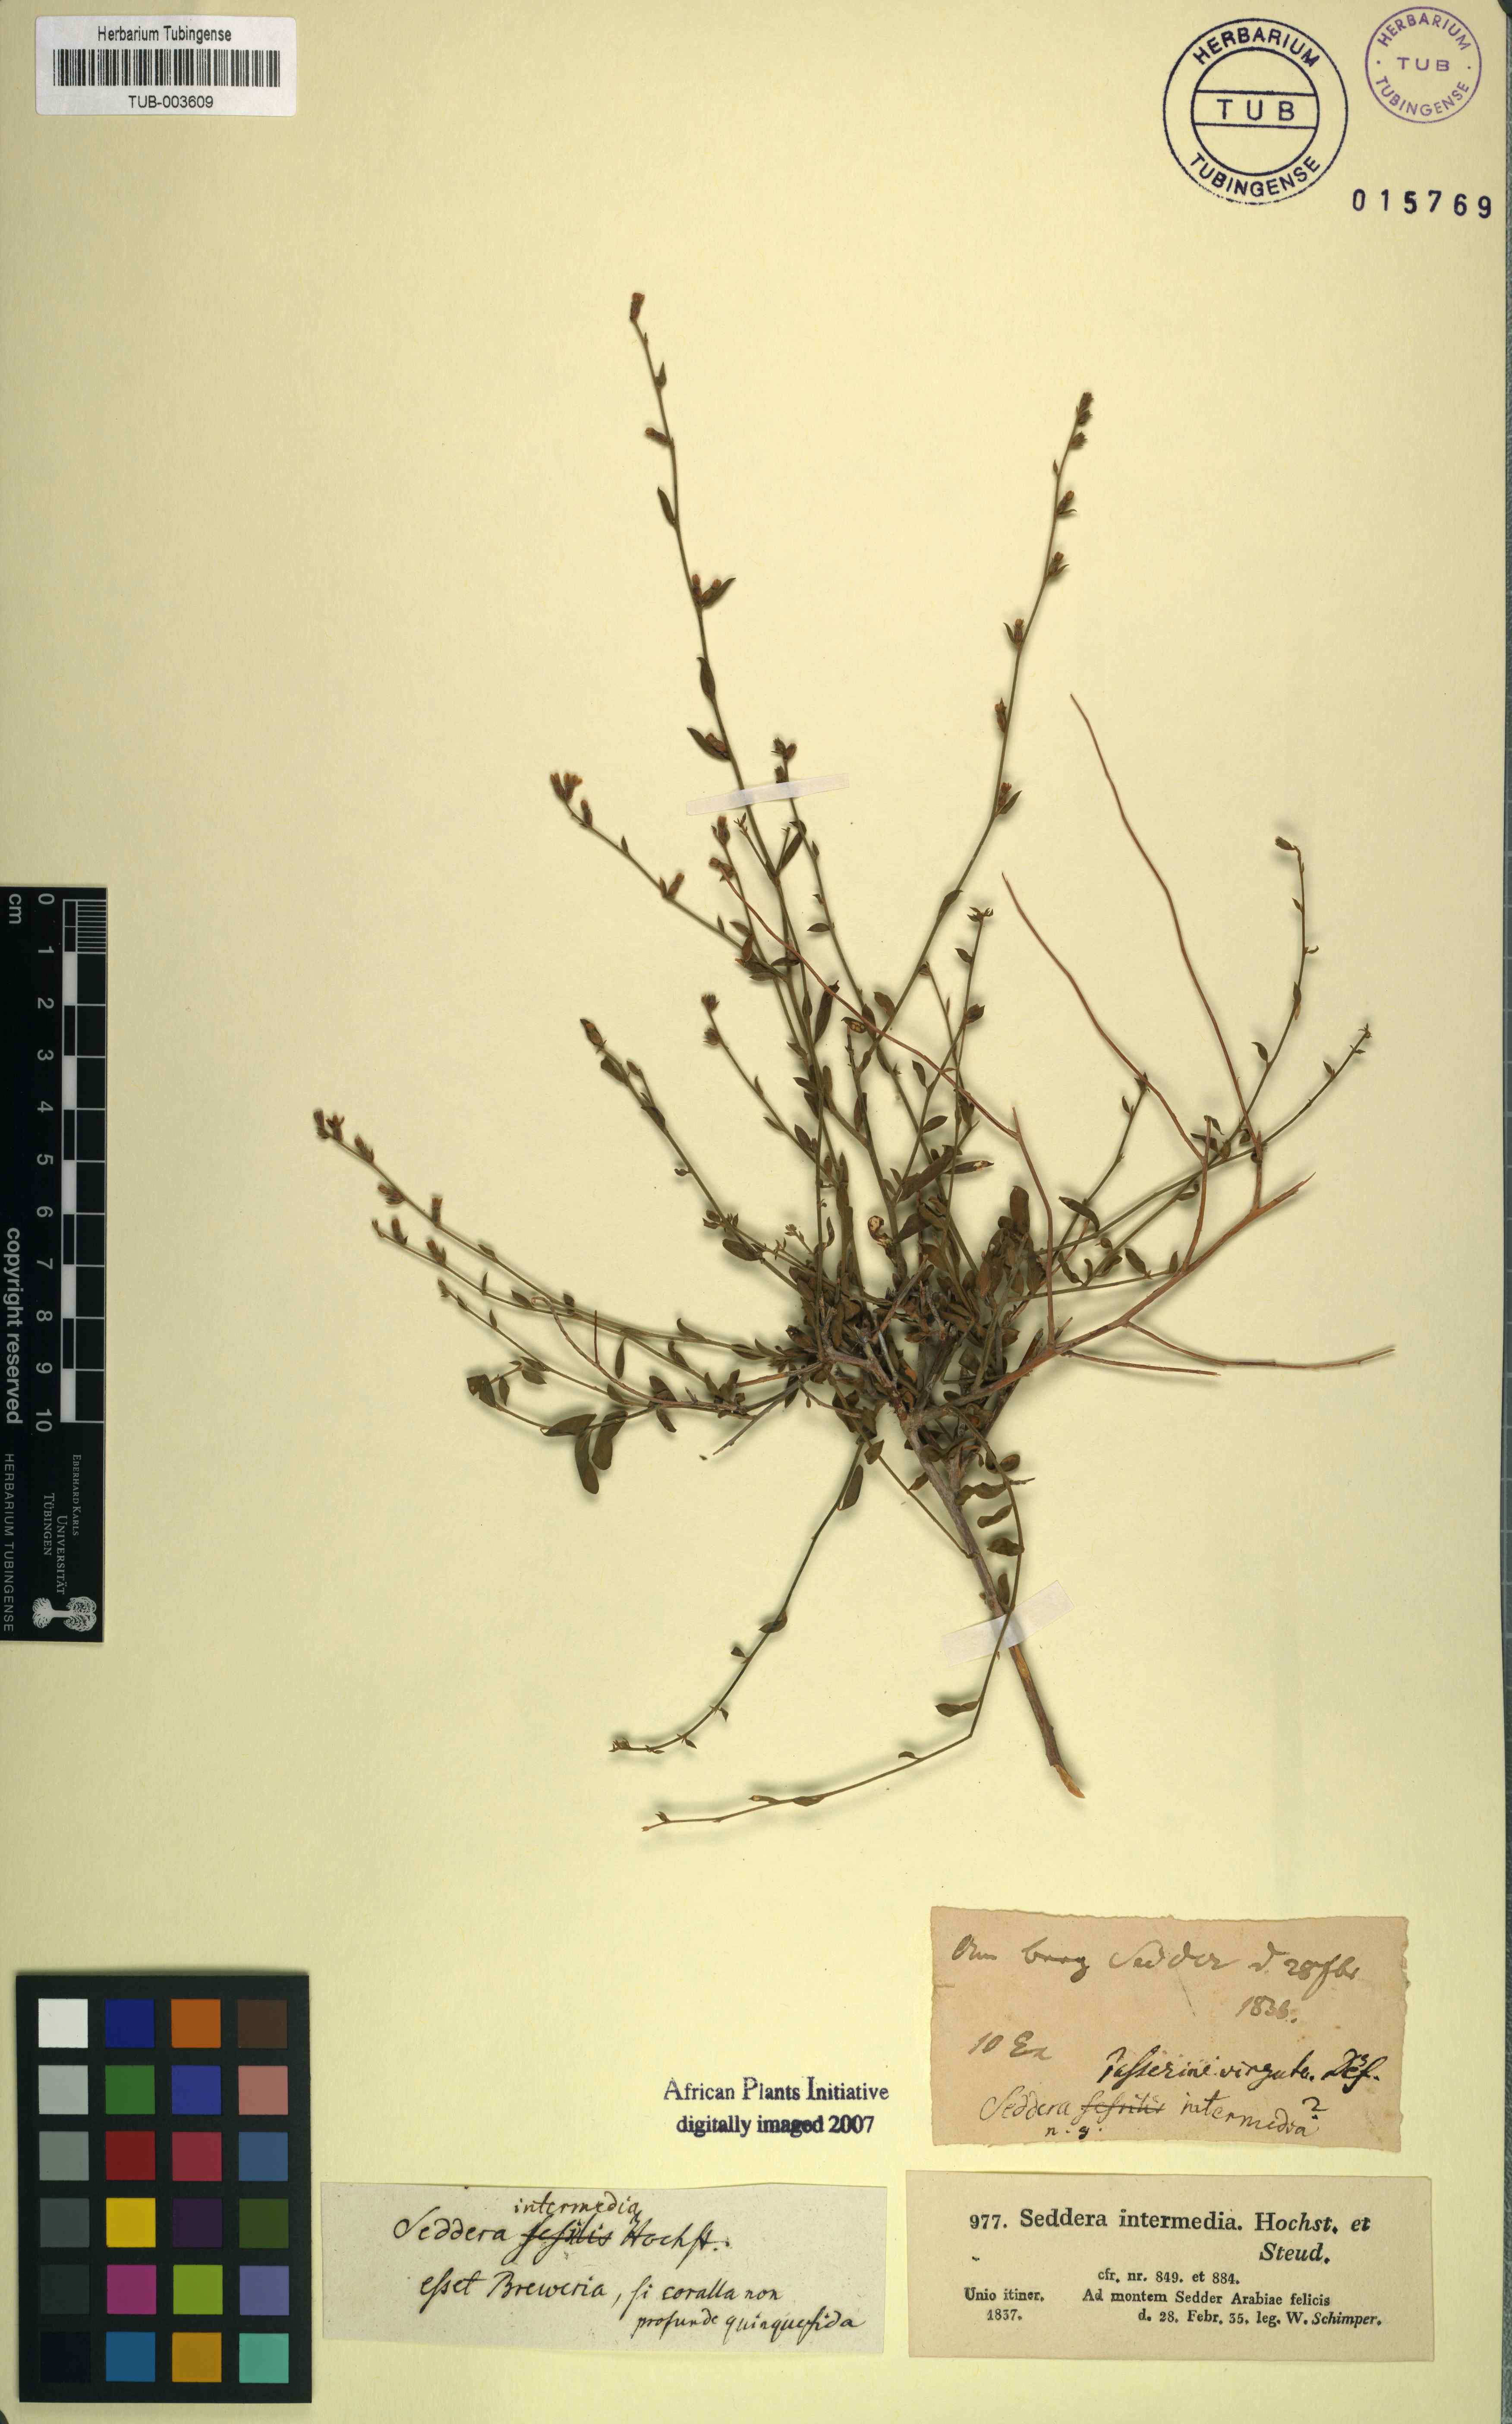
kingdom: Plantae
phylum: Tracheophyta
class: Magnoliopsida
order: Solanales
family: Convolvulaceae
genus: Seddera
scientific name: Seddera intermedia
